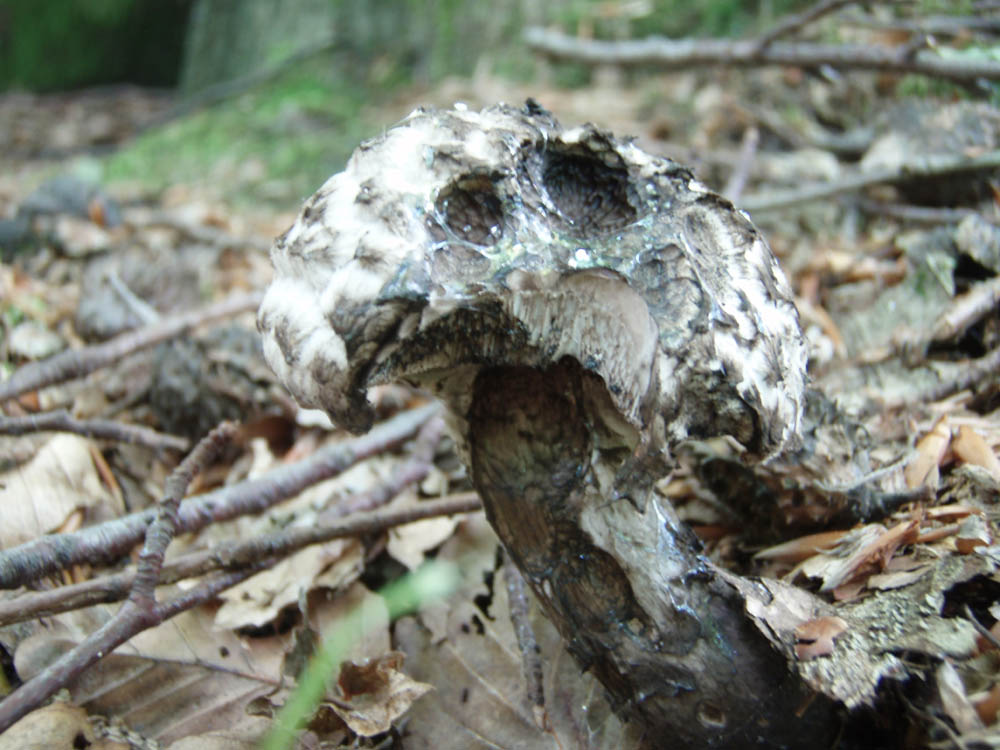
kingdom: Fungi
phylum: Basidiomycota
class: Agaricomycetes
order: Boletales
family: Boletaceae
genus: Strobilomyces
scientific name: Strobilomyces strobilaceus
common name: koglerørhat
